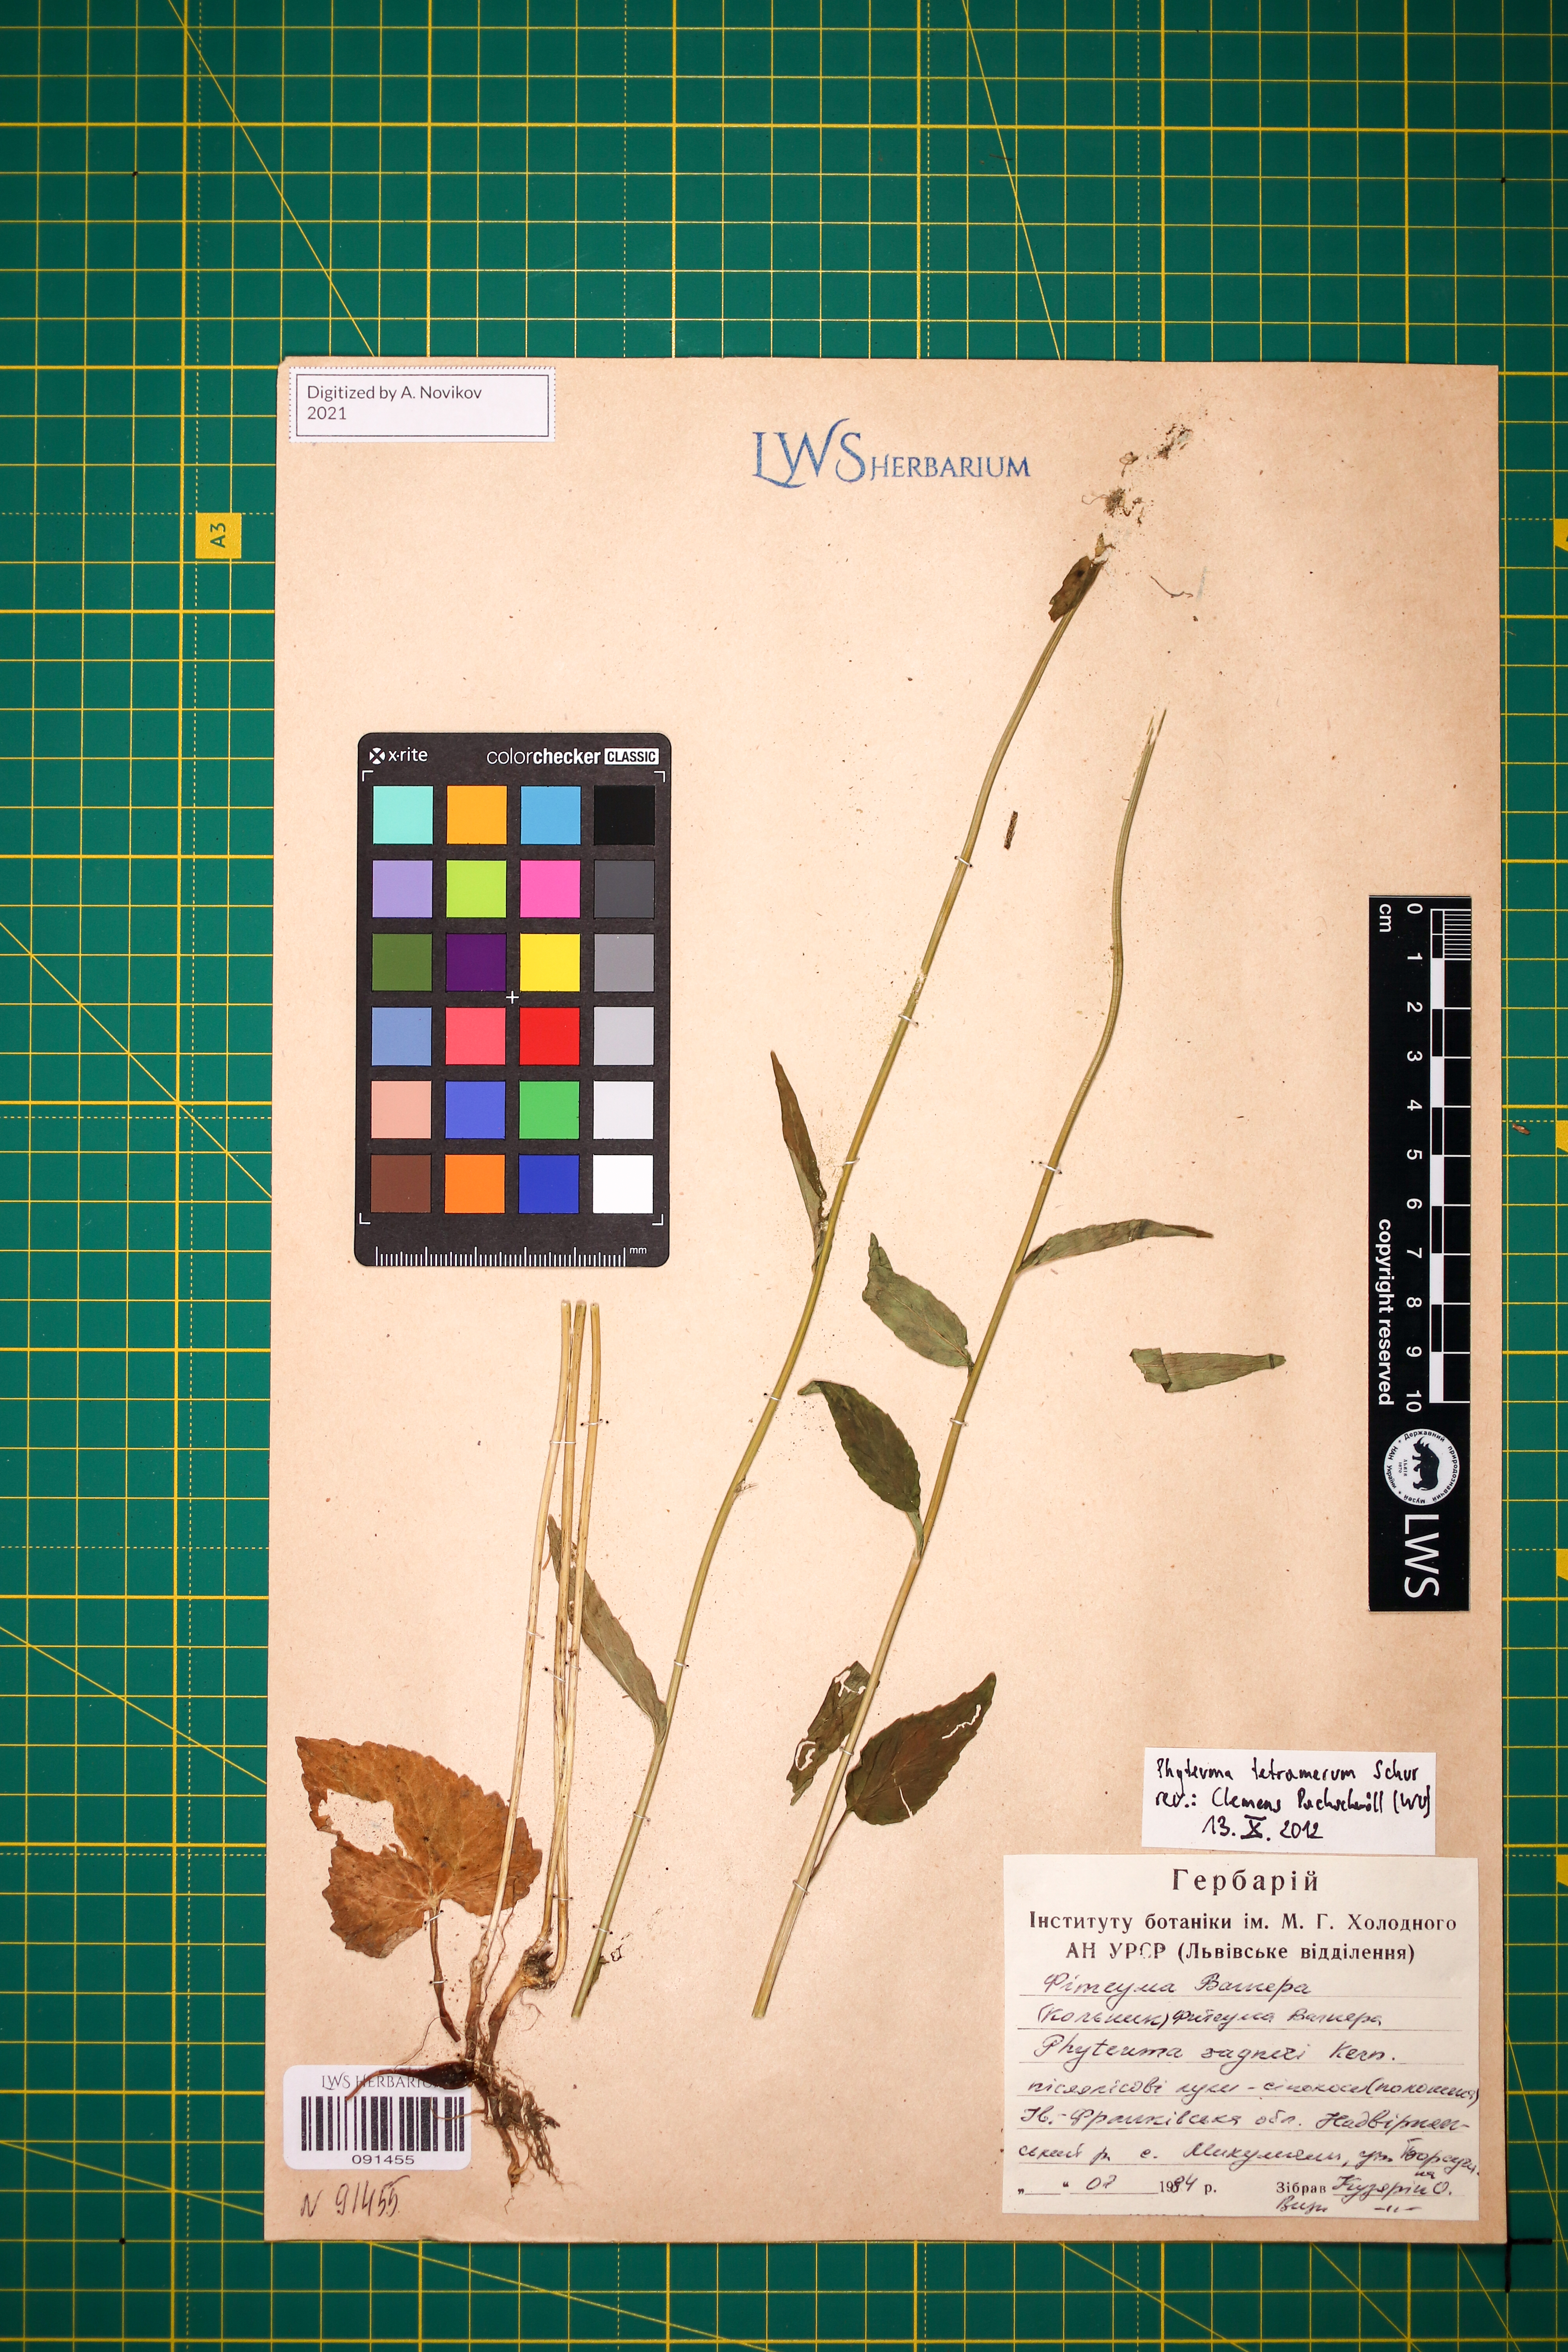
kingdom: Plantae
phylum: Tracheophyta
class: Magnoliopsida
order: Asterales
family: Campanulaceae
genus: Phyteuma
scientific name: Phyteuma tetramerum
